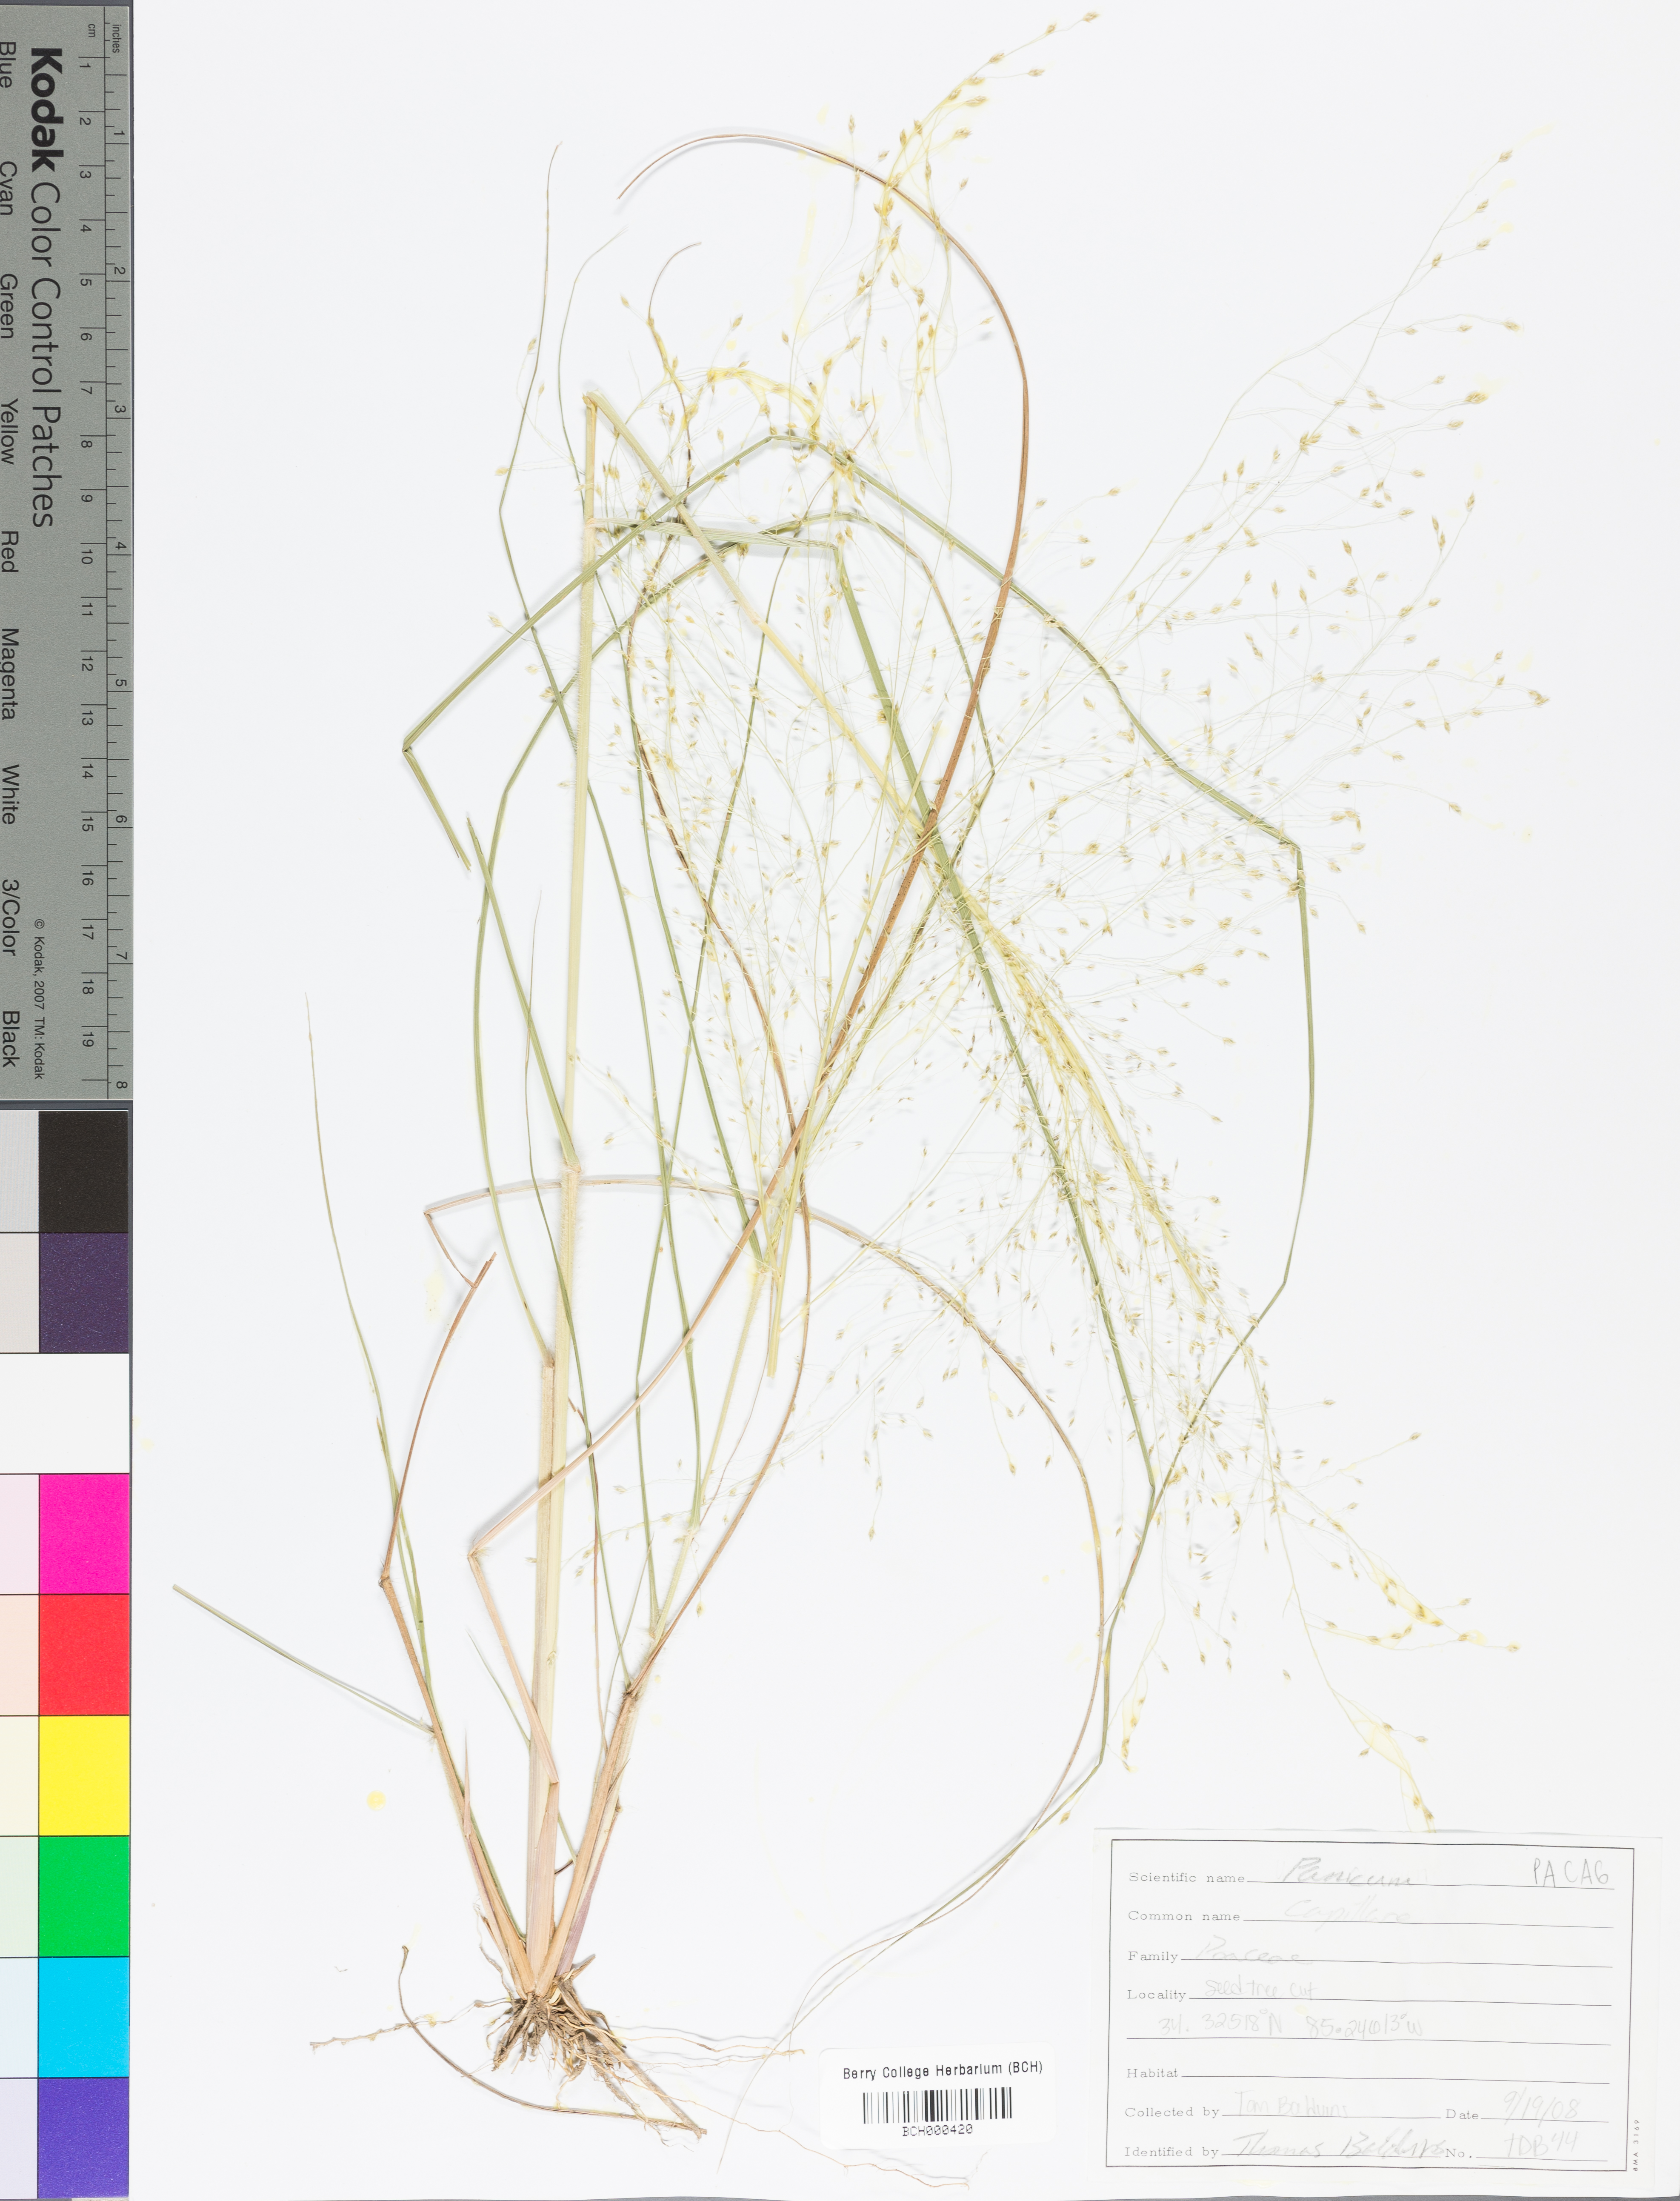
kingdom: Plantae
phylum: Tracheophyta
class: Liliopsida
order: Poales
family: Poaceae
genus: Coleataenia
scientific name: Coleataenia anceps
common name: Beaked panic grass
